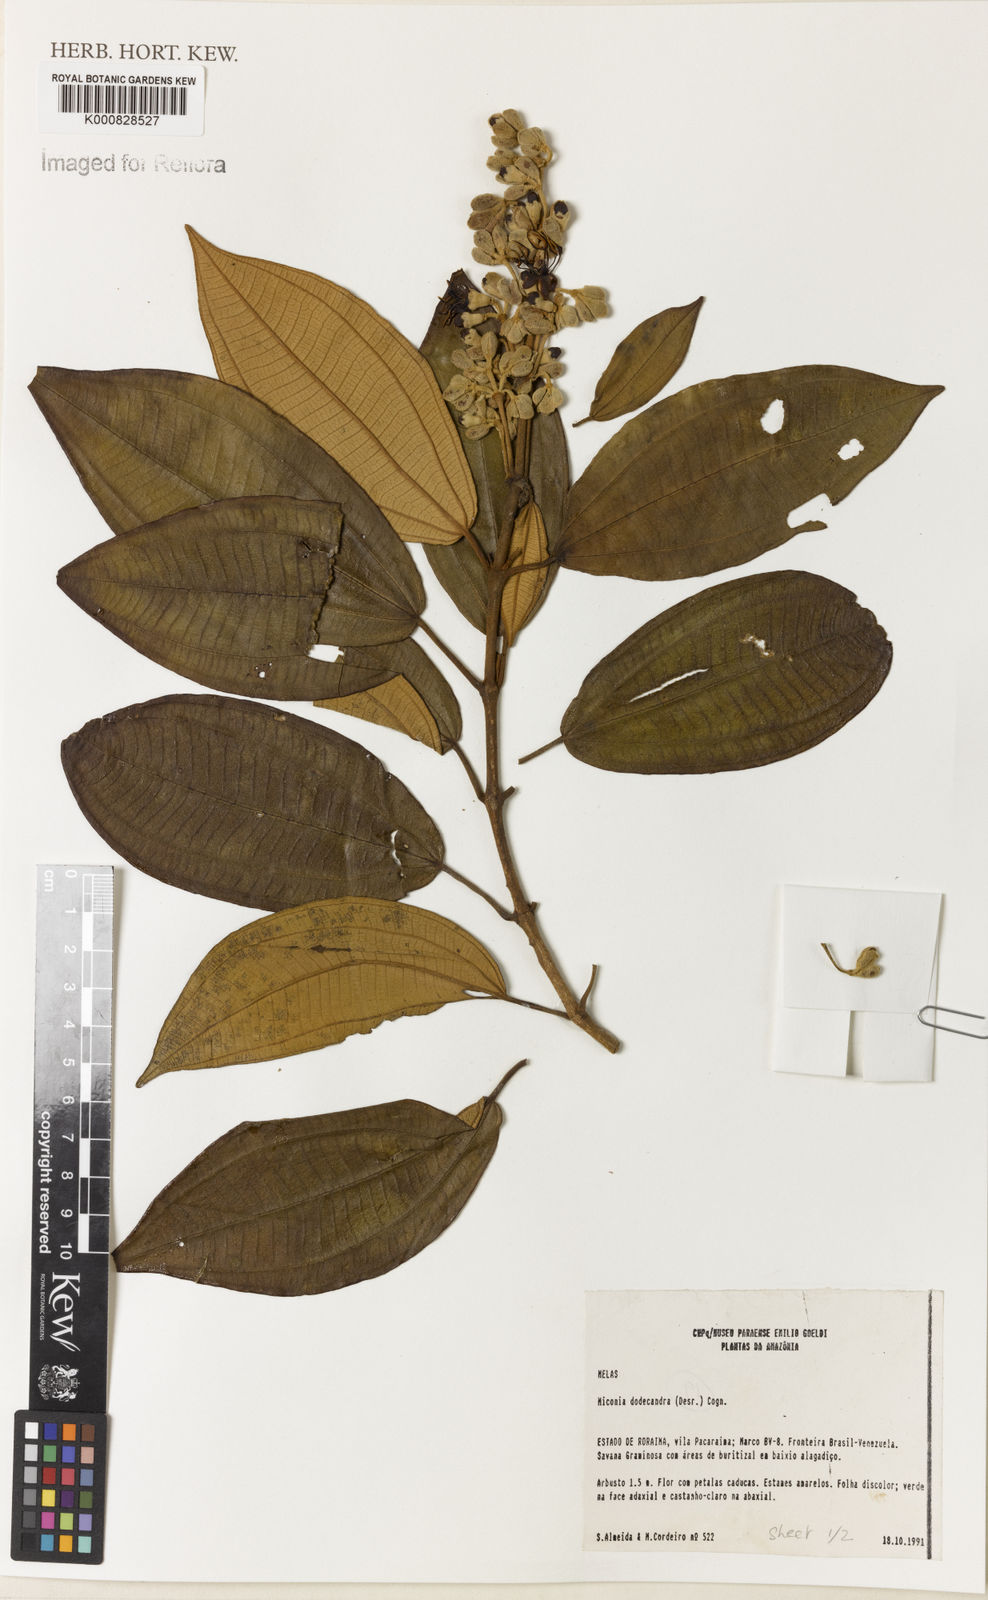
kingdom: Plantae
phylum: Tracheophyta
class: Magnoliopsida
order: Myrtales
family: Melastomataceae
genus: Miconia
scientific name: Miconia dodecandra
